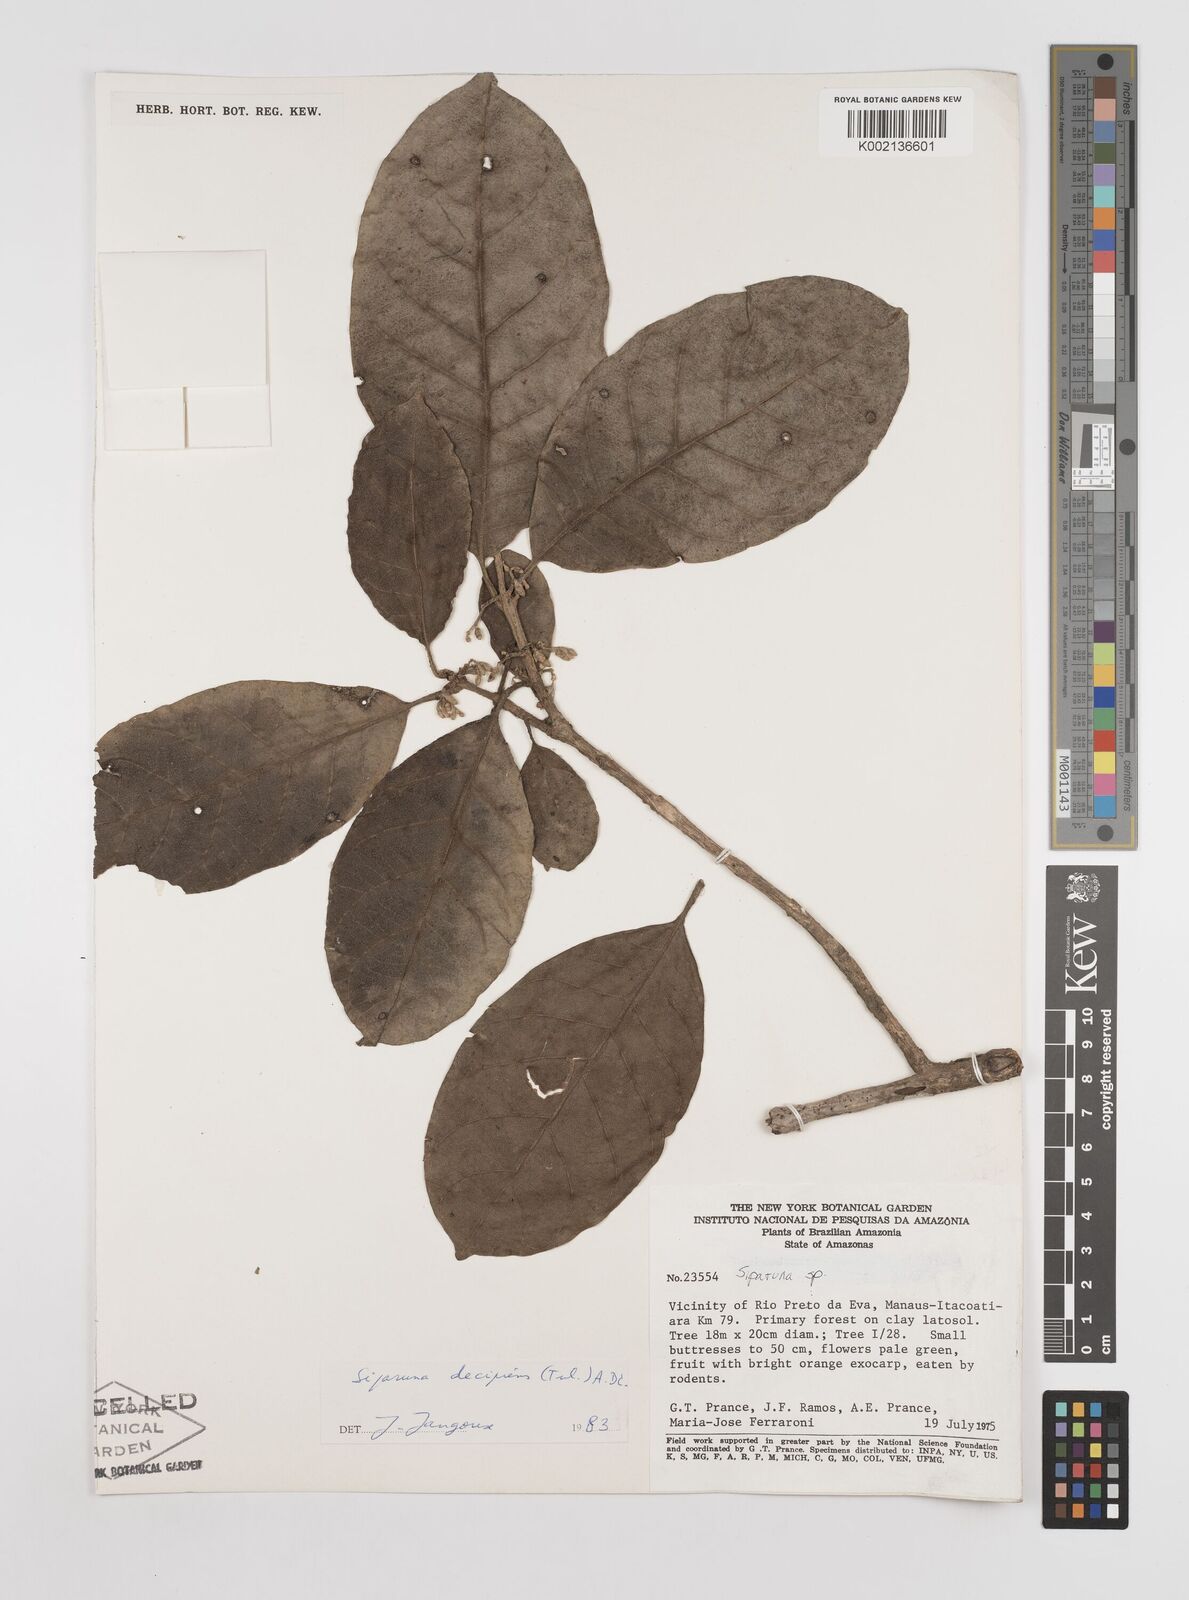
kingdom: Plantae
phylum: Tracheophyta
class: Magnoliopsida
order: Laurales
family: Siparunaceae
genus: Siparuna
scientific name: Siparuna decipiens
